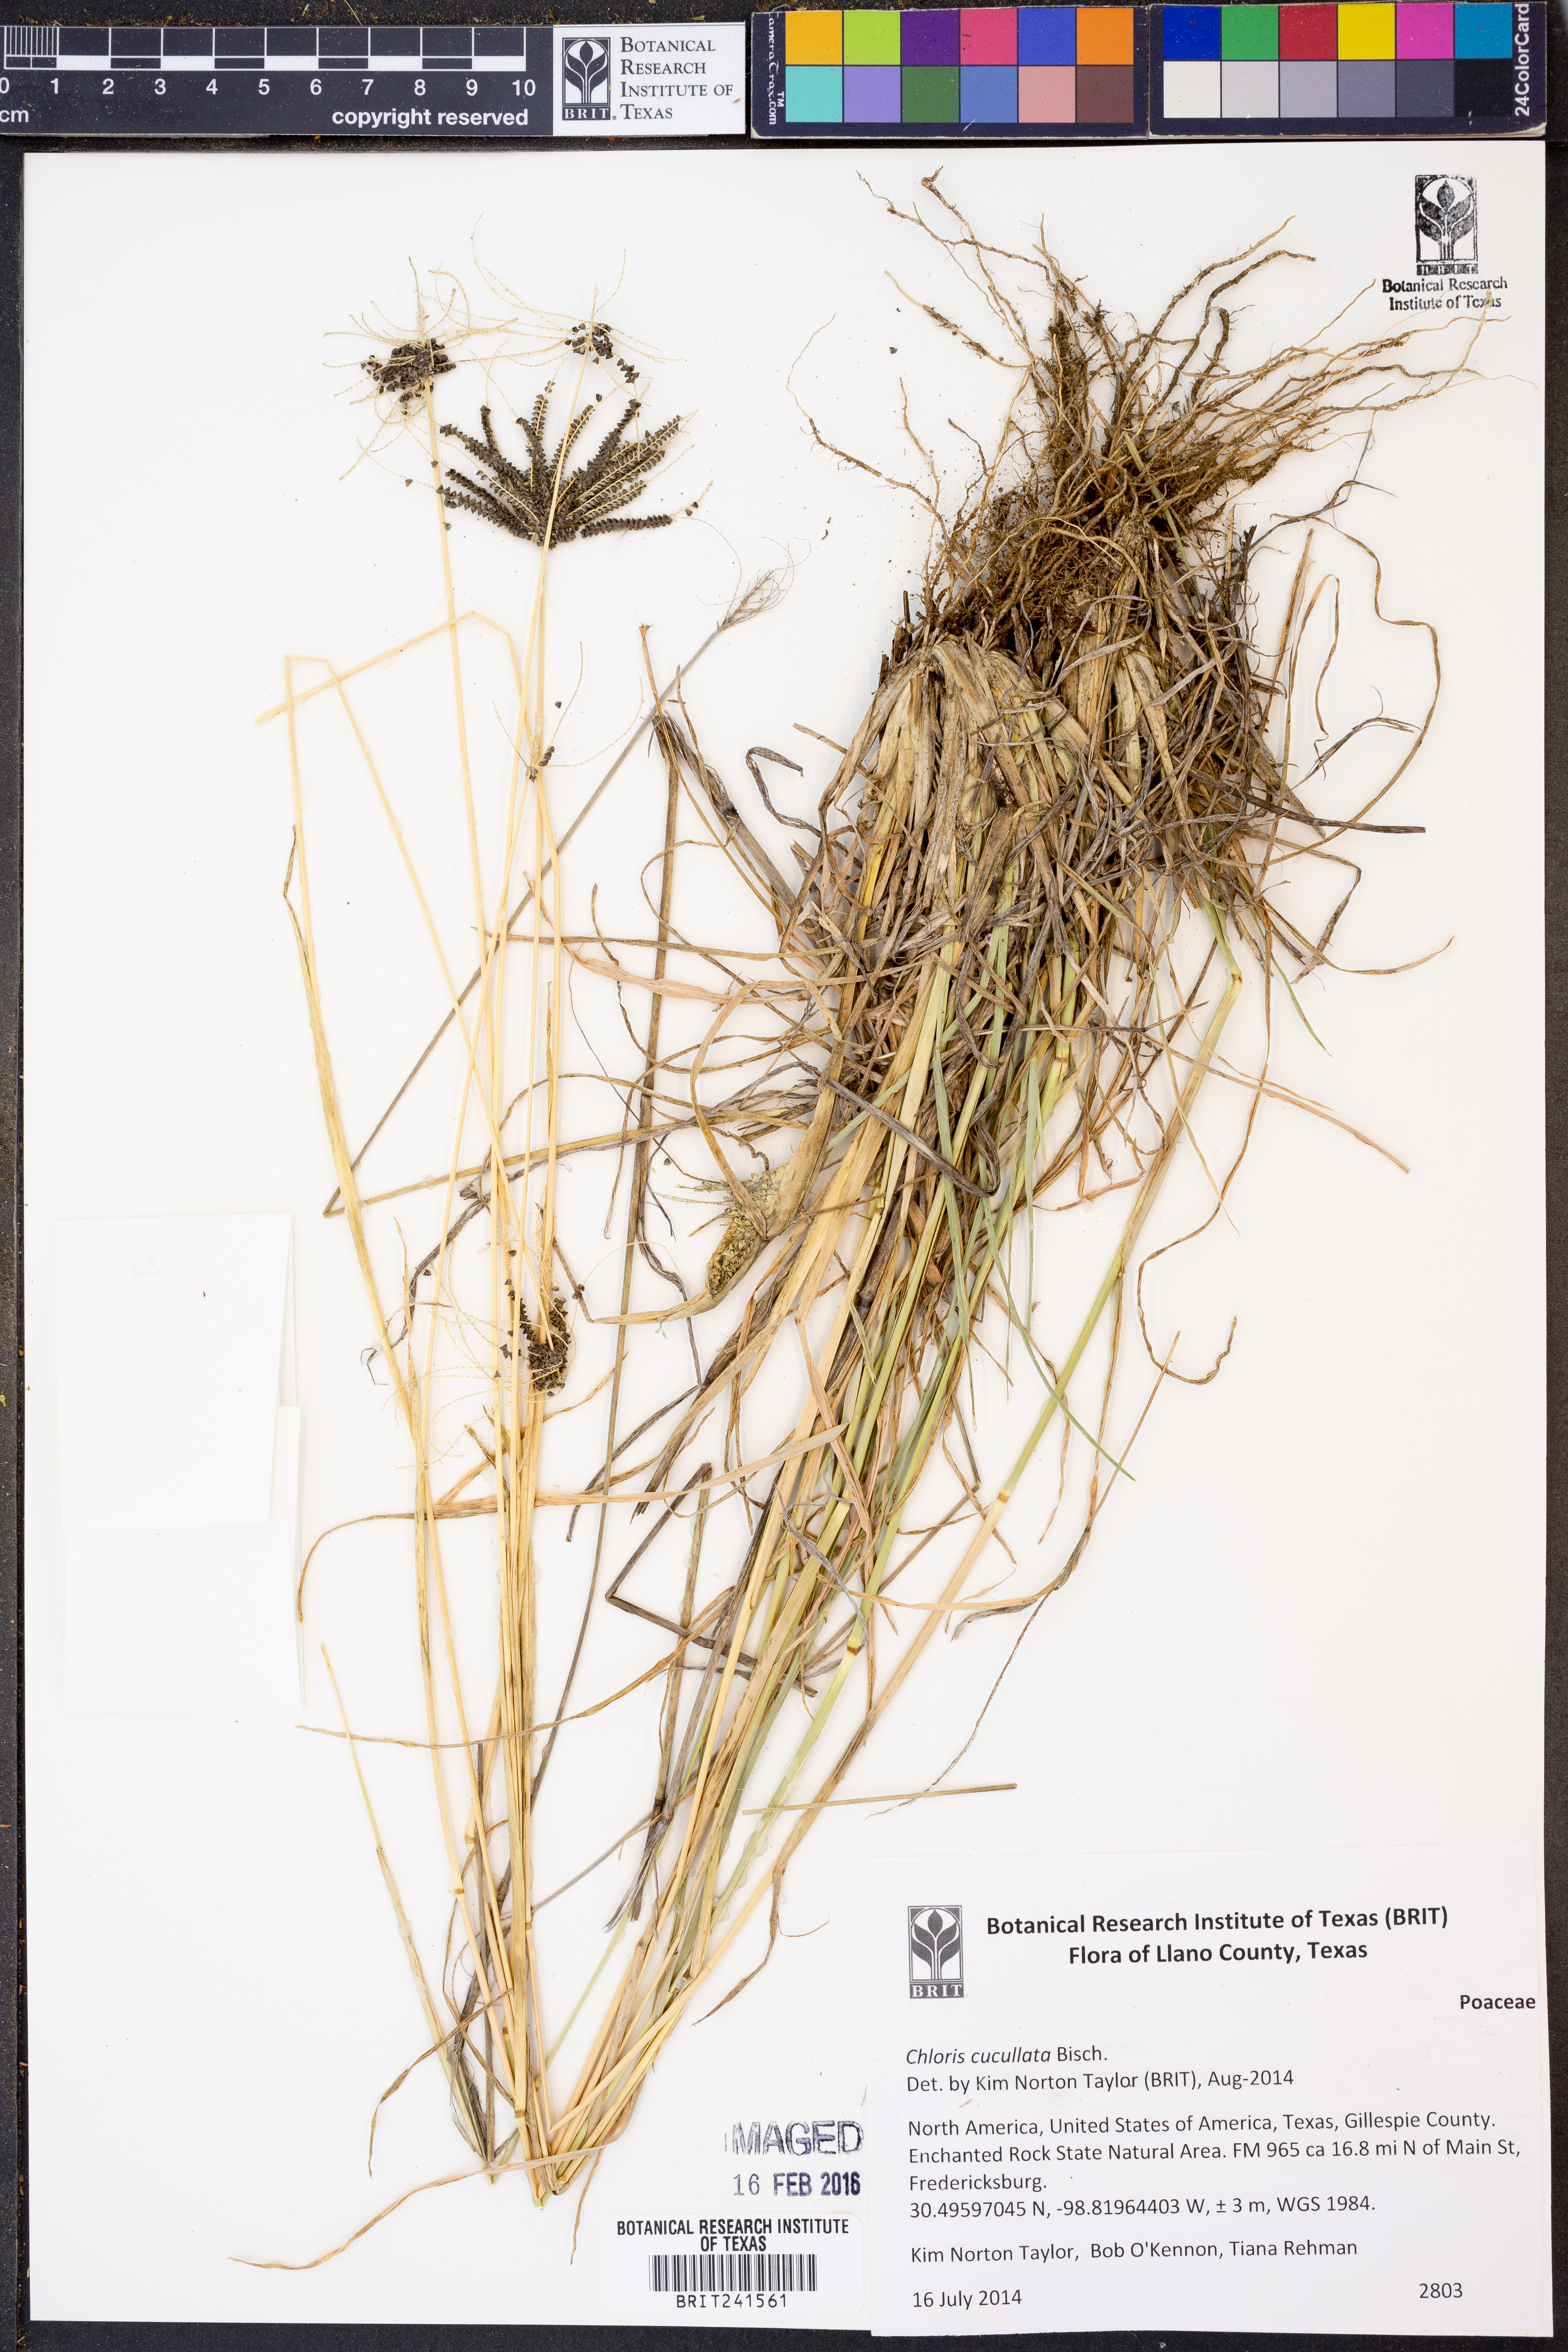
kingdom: Plantae
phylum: Tracheophyta
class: Liliopsida
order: Poales
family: Poaceae
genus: Chloris
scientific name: Chloris cucullata
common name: Hooded windmill grass
